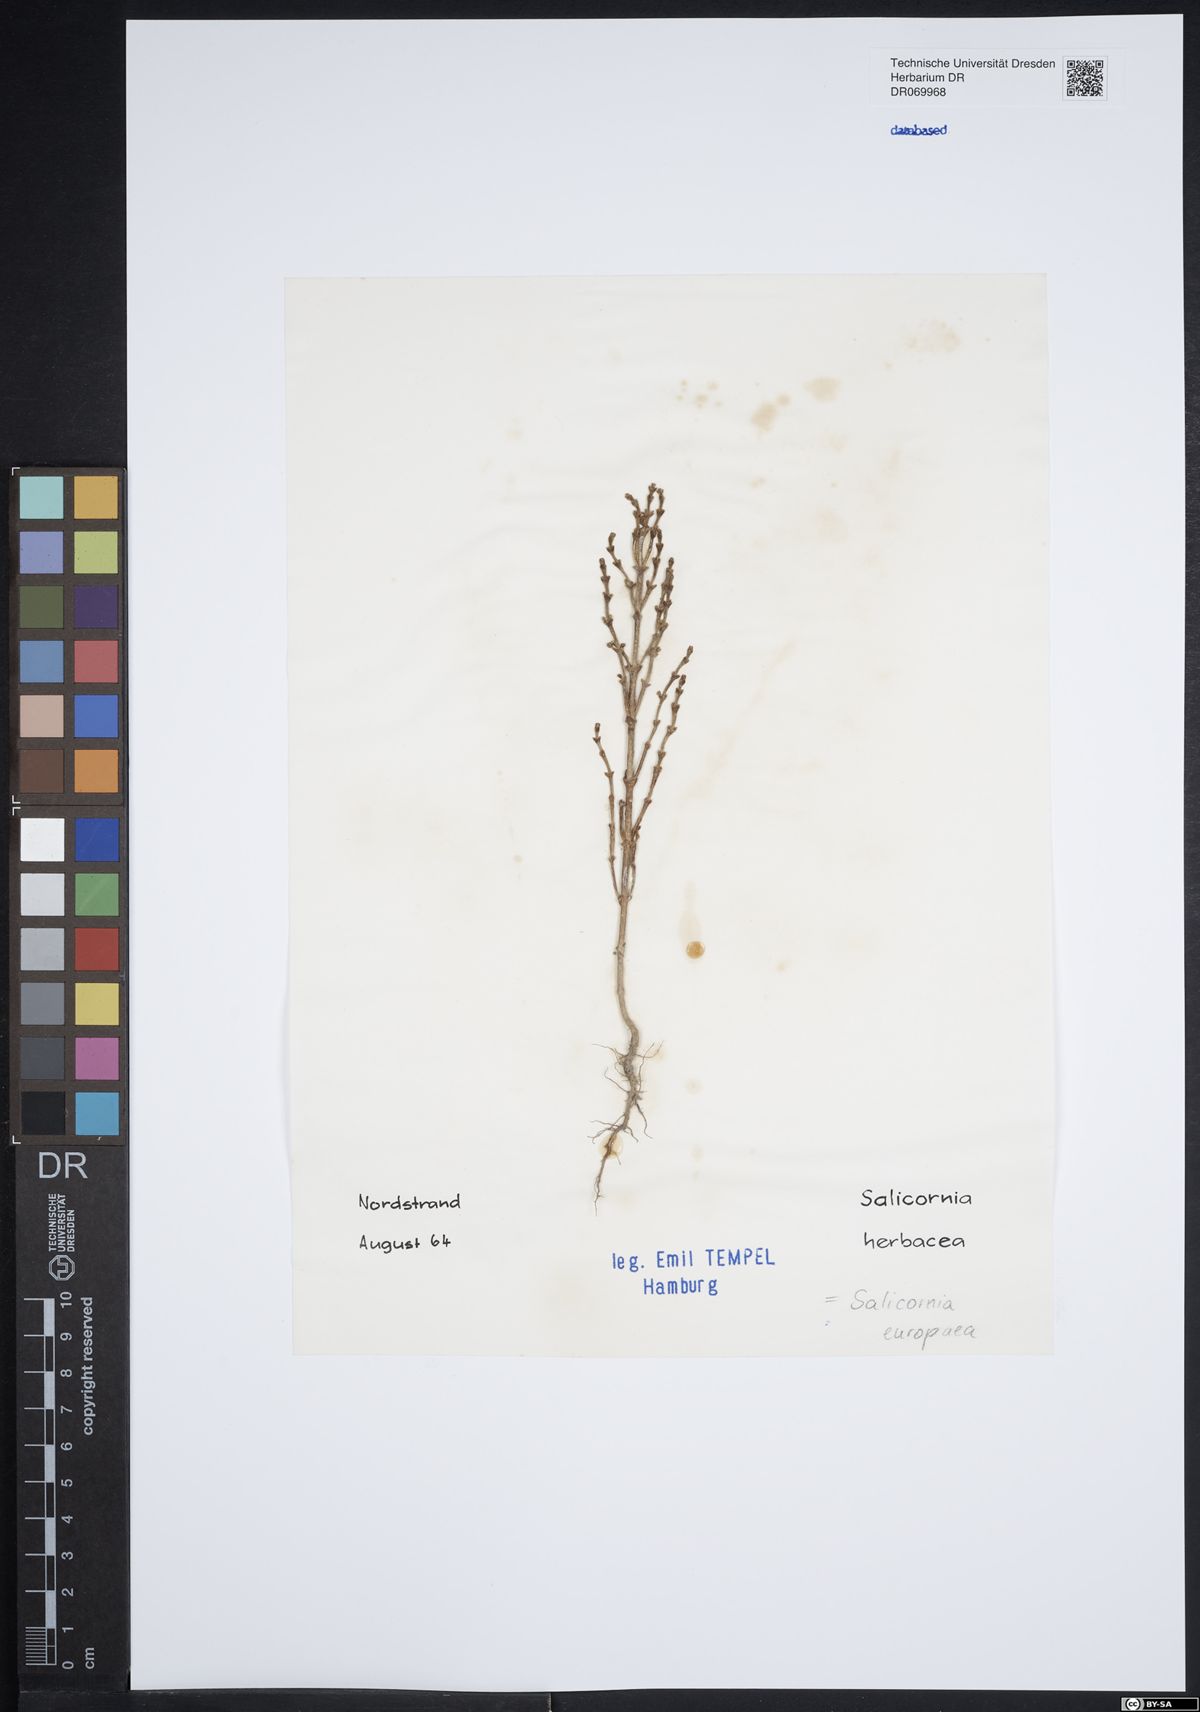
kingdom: Plantae
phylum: Tracheophyta
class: Magnoliopsida
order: Caryophyllales
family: Amaranthaceae
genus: Salicornia
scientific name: Salicornia europaea
